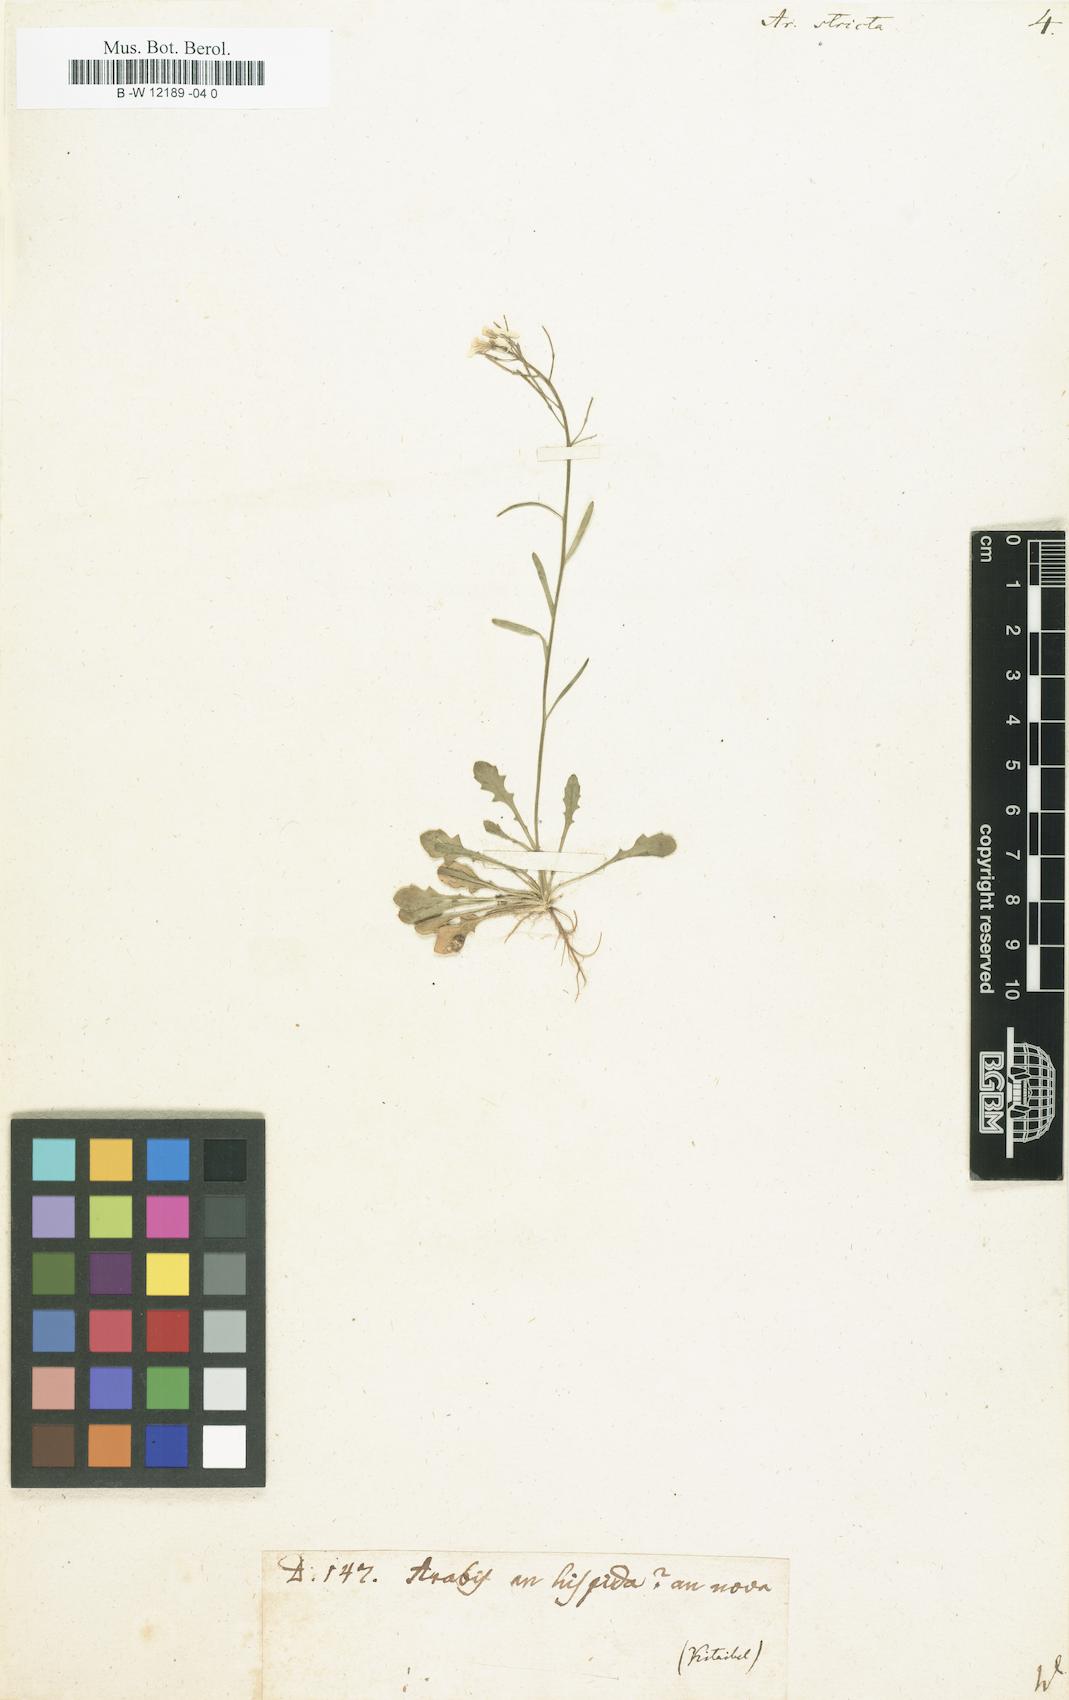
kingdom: Plantae
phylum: Tracheophyta
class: Magnoliopsida
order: Brassicales
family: Brassicaceae
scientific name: Brassicaceae
